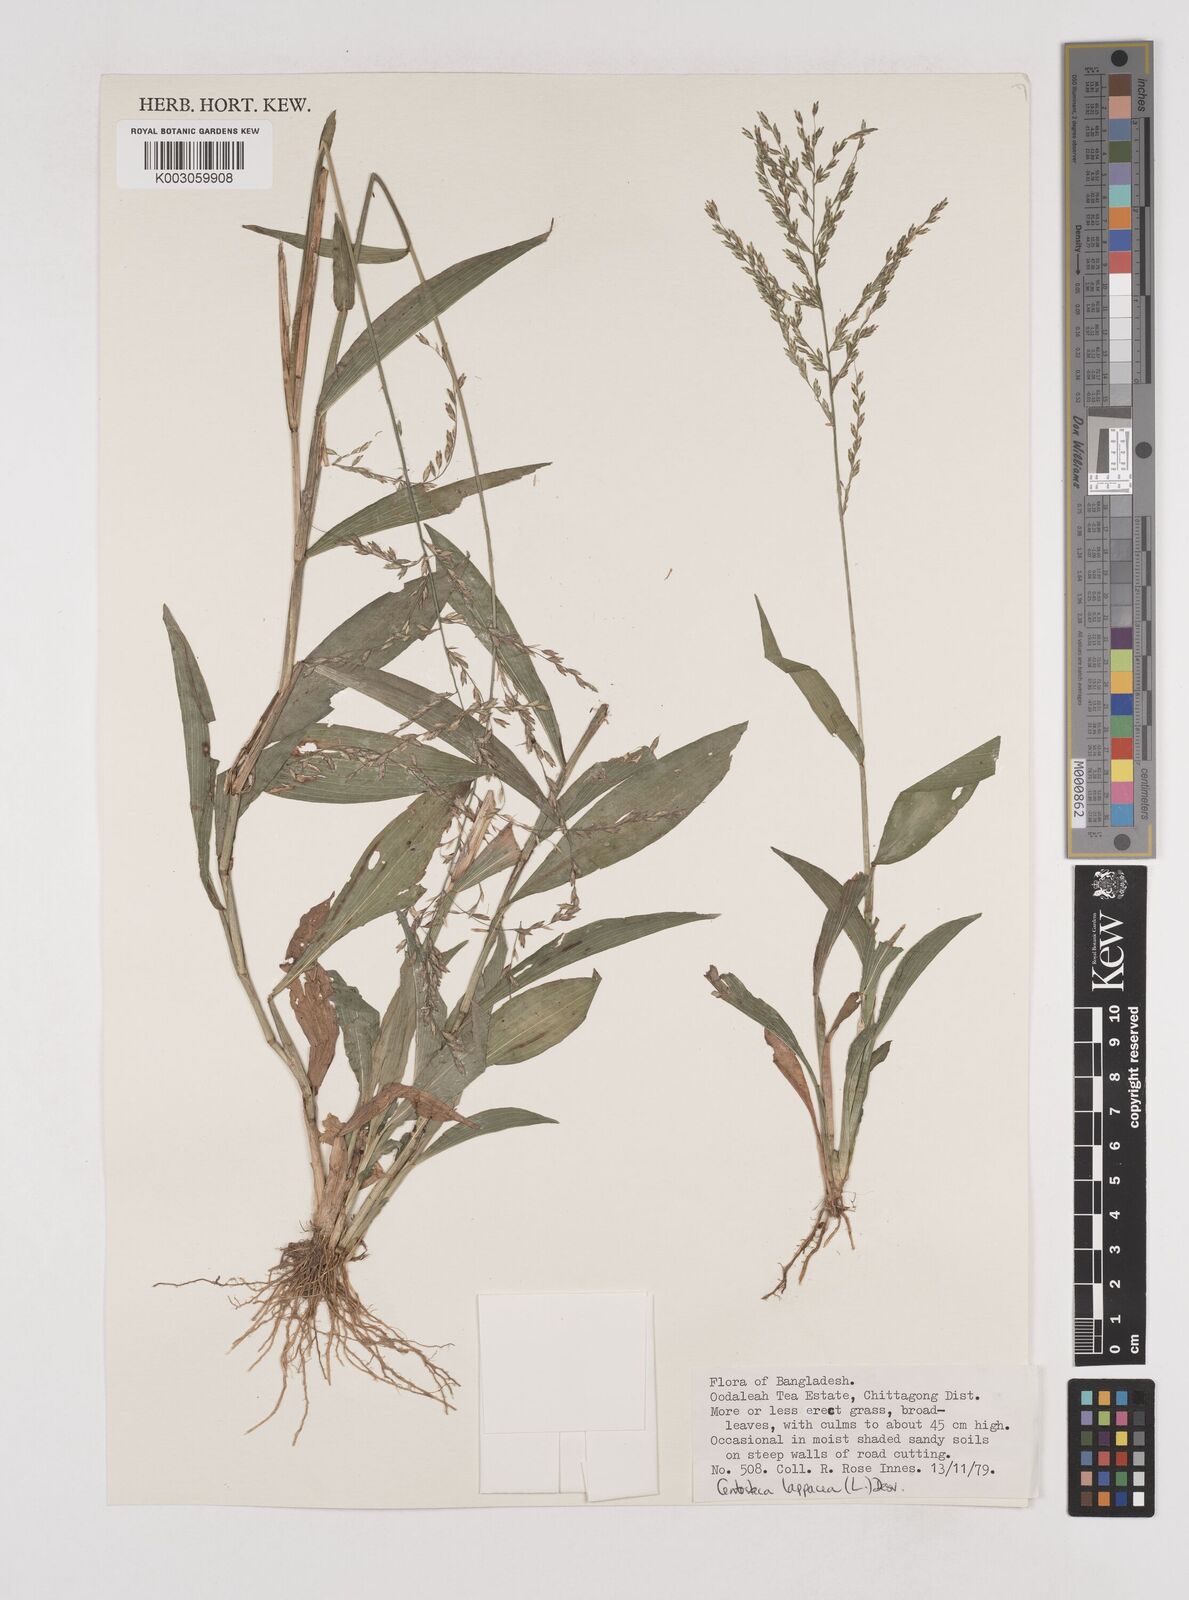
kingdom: Plantae
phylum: Tracheophyta
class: Liliopsida
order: Poales
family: Poaceae
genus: Centotheca
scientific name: Centotheca lappacea
